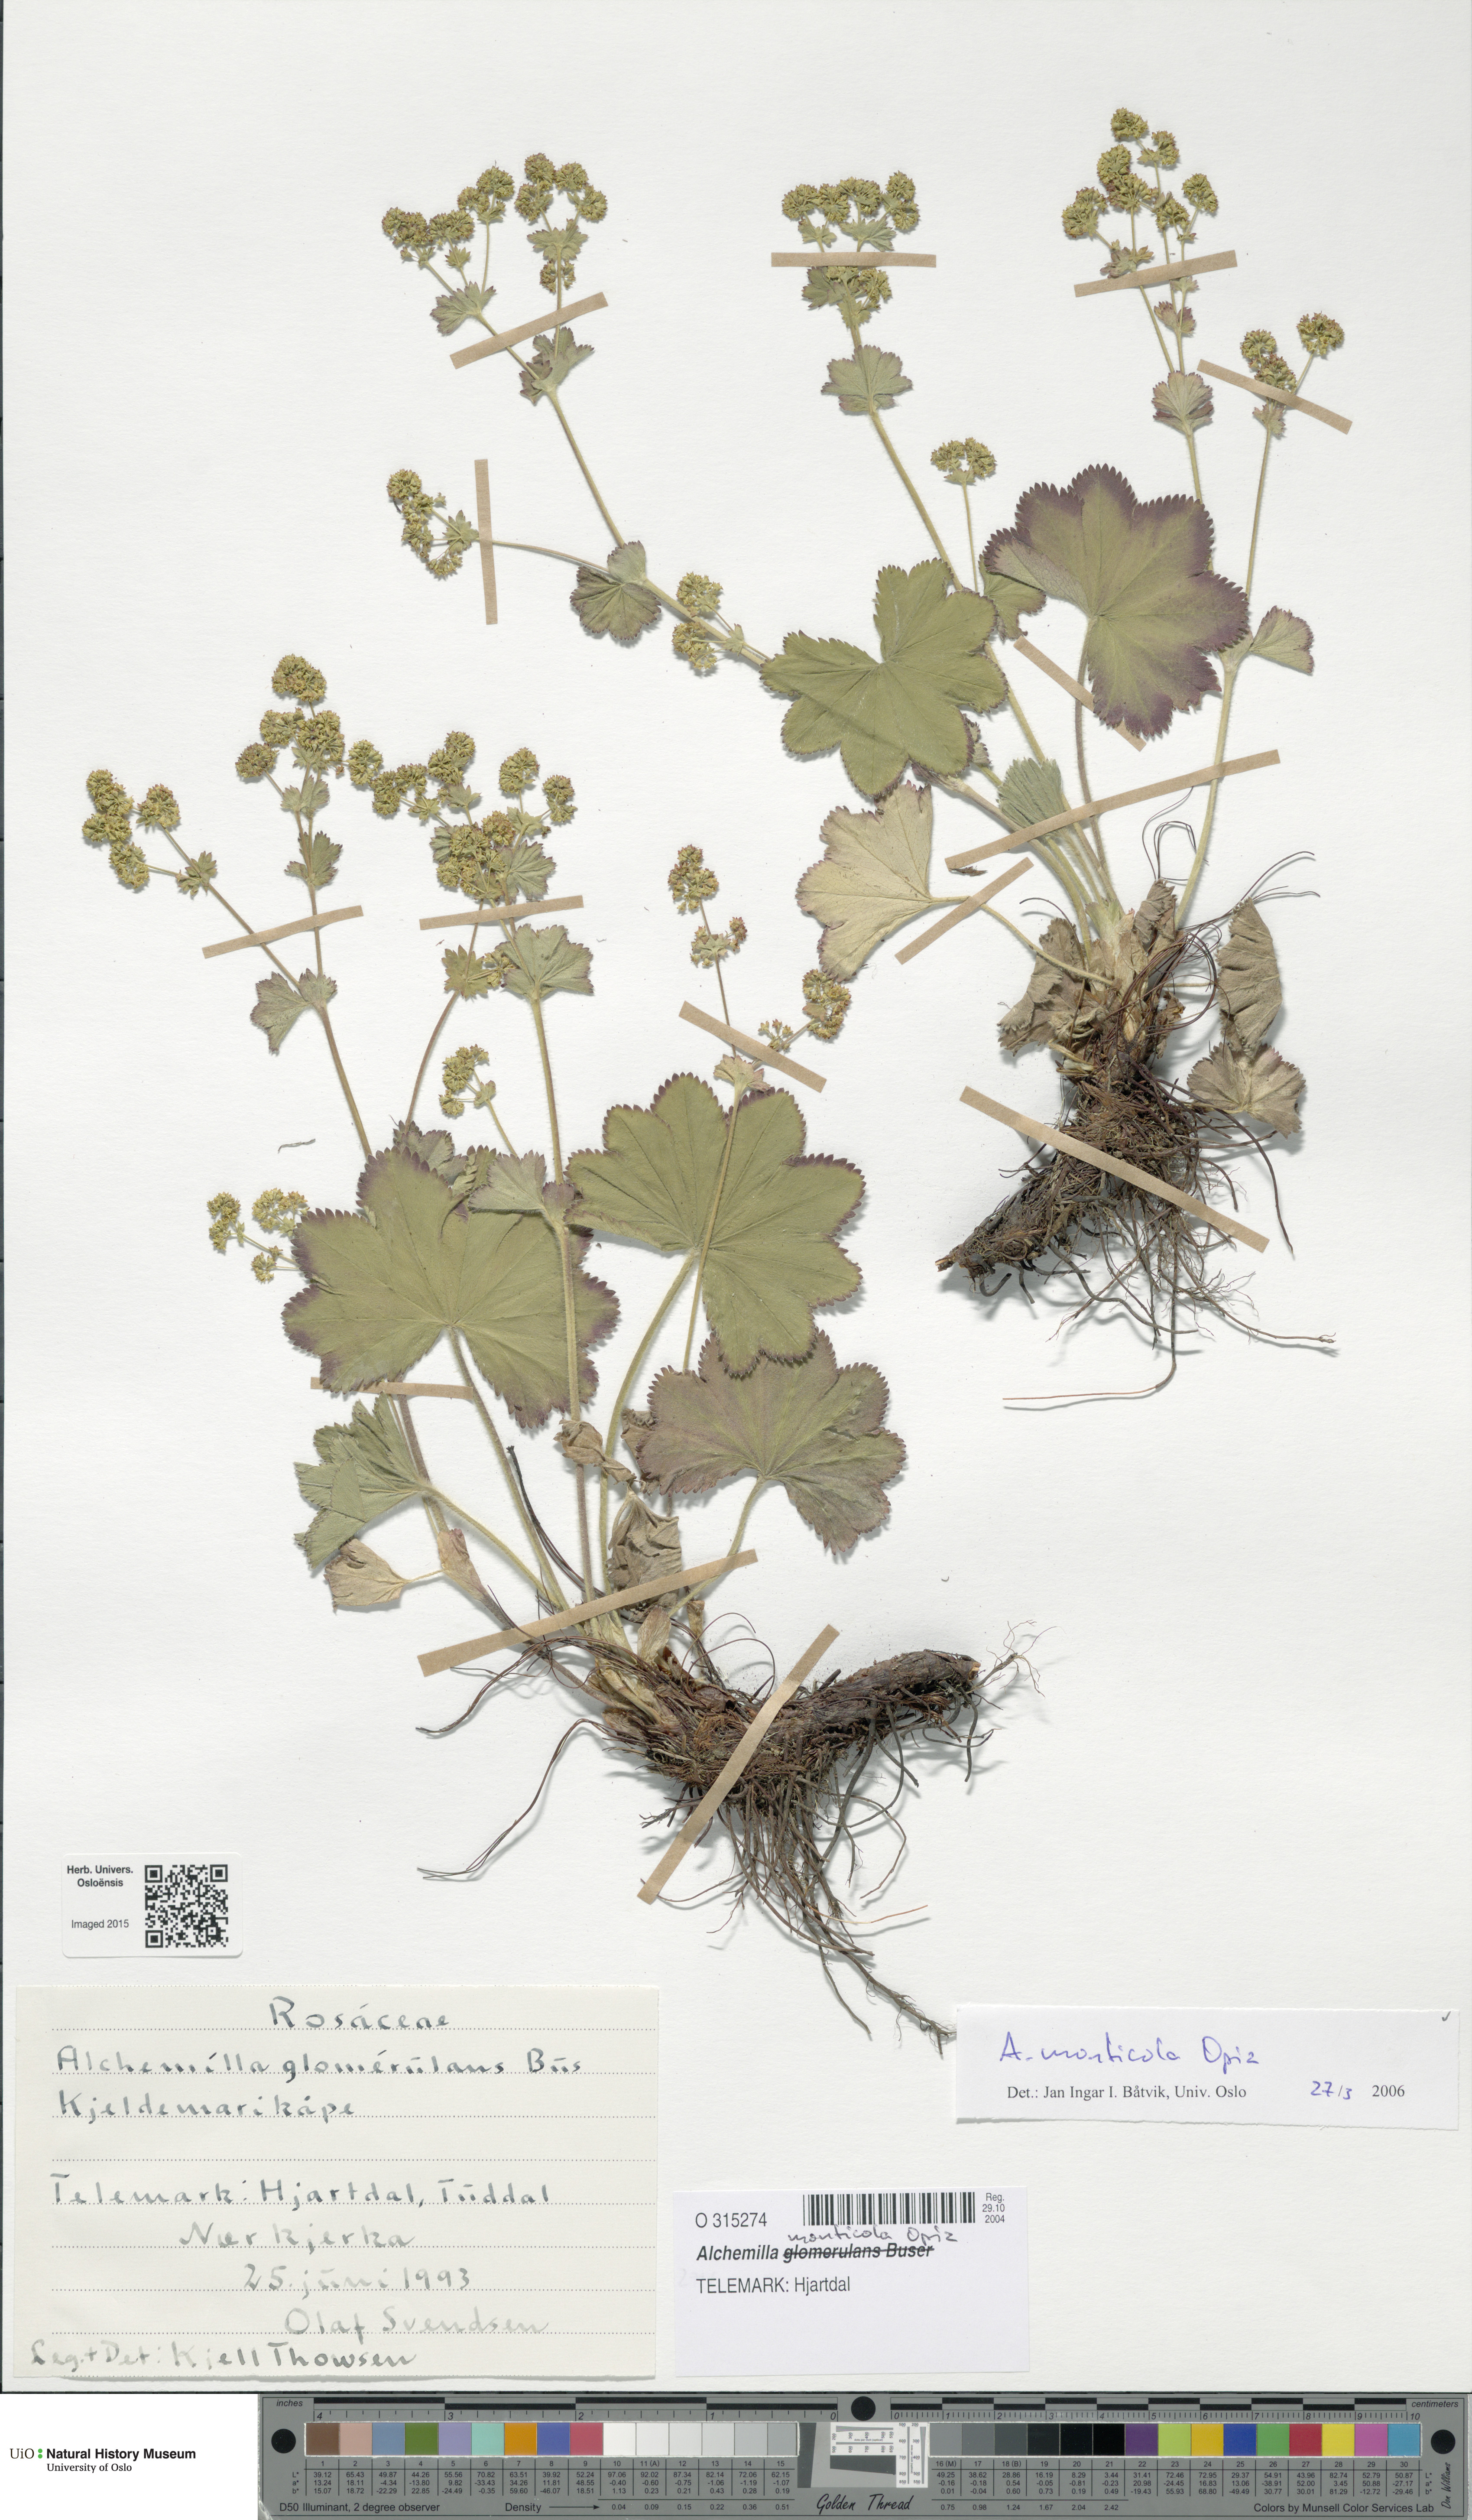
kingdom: Plantae
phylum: Tracheophyta
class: Magnoliopsida
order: Rosales
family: Rosaceae
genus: Alchemilla
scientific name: Alchemilla monticola
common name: Hairy lady's mantle
